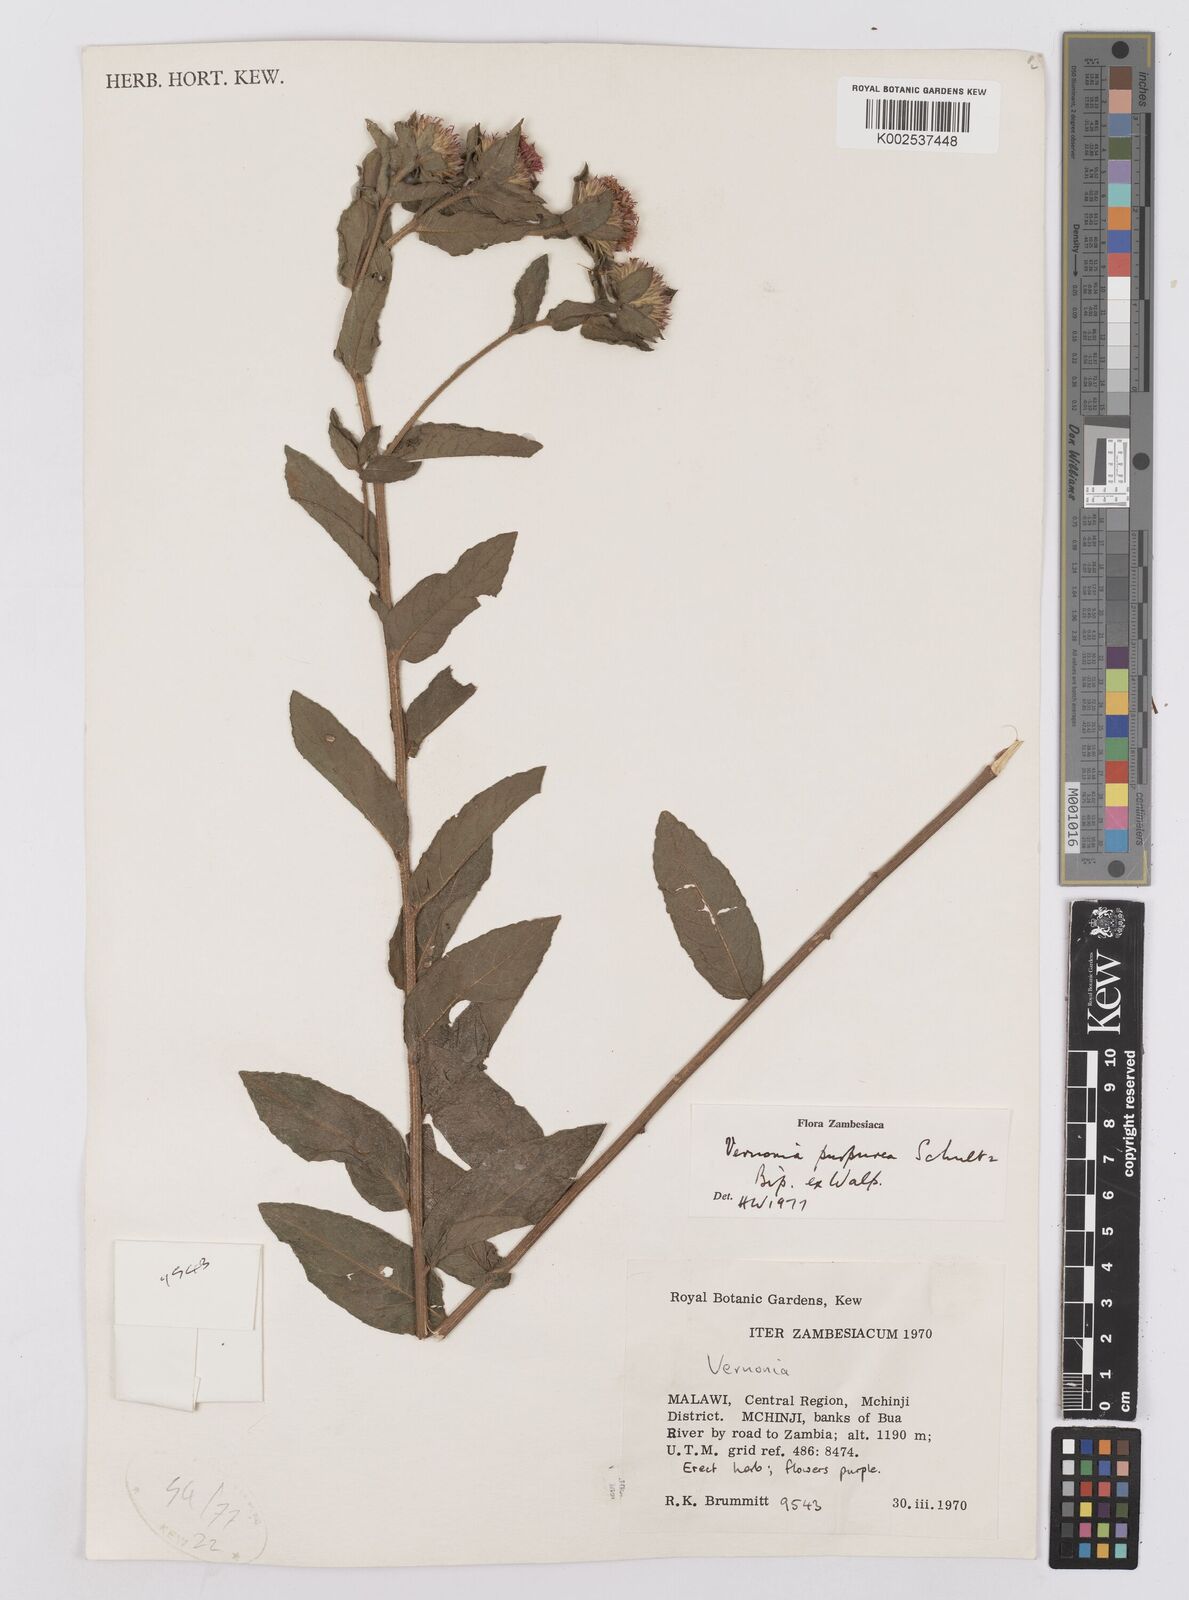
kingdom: Plantae
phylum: Tracheophyta
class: Magnoliopsida
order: Asterales
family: Asteraceae
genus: Nothovernonia
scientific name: Nothovernonia purpurea
